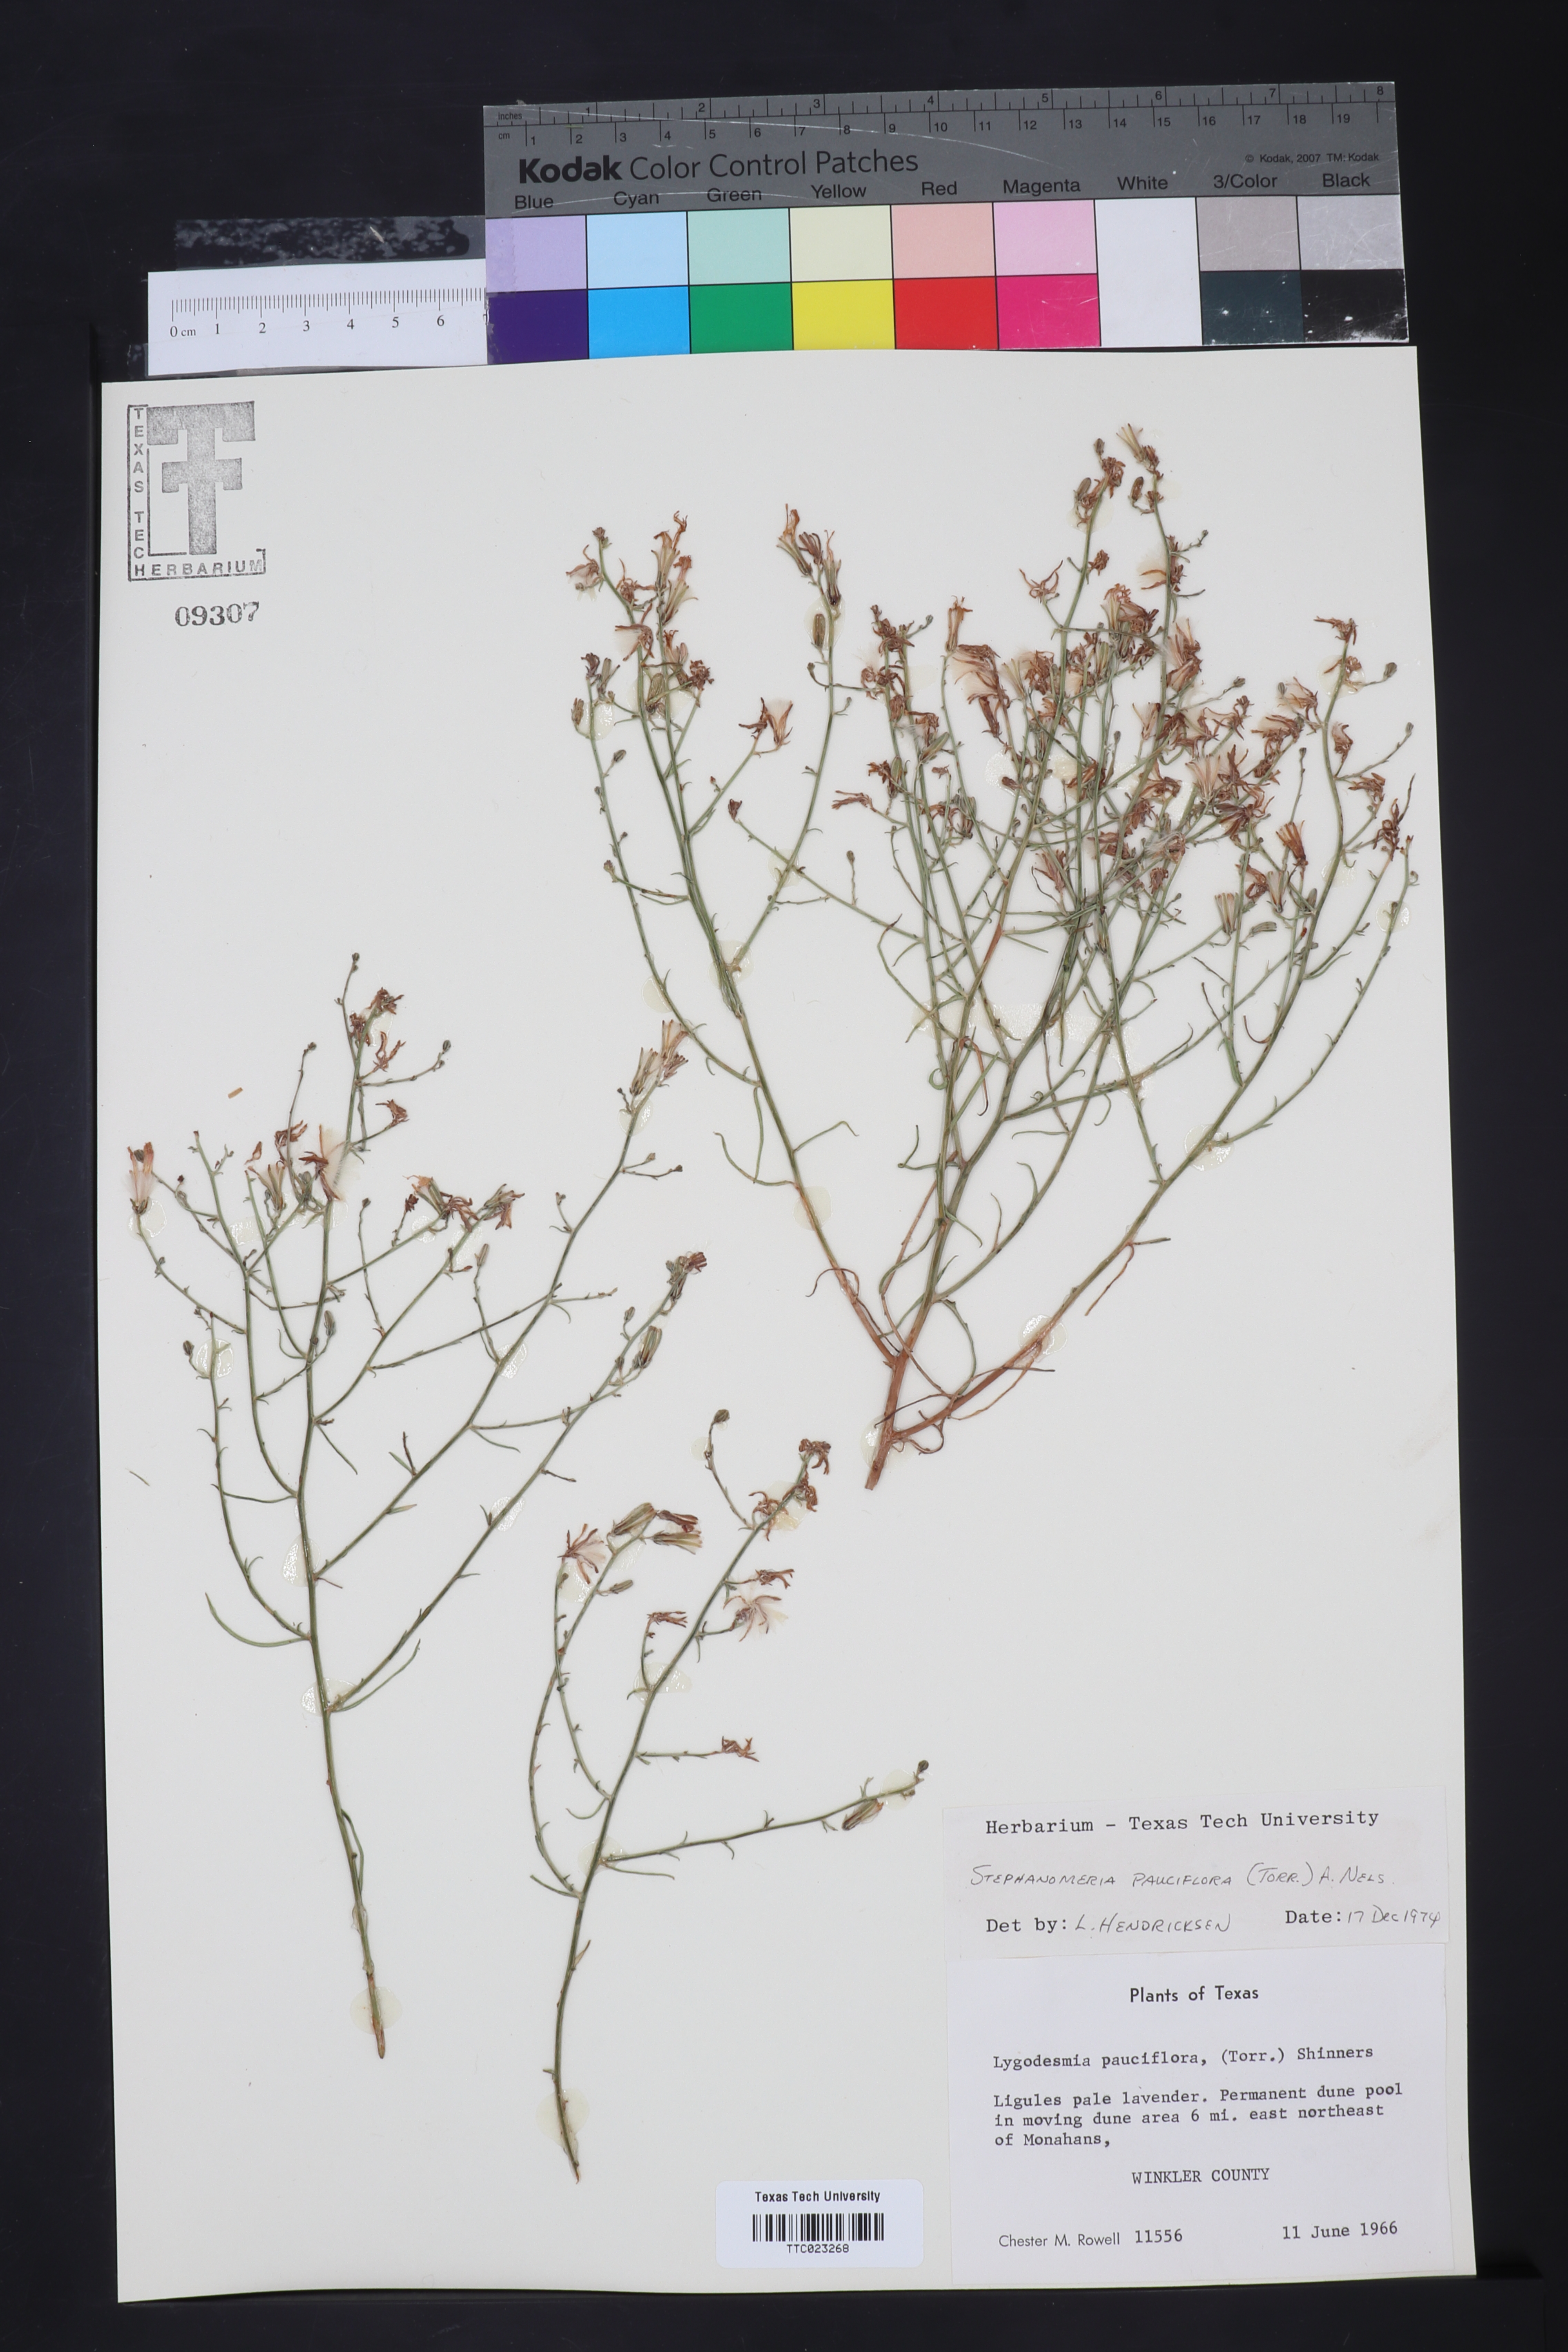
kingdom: Plantae
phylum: Tracheophyta
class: Magnoliopsida
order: Asterales
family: Asteraceae
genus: Stephanomeria
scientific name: Stephanomeria pauciflora
